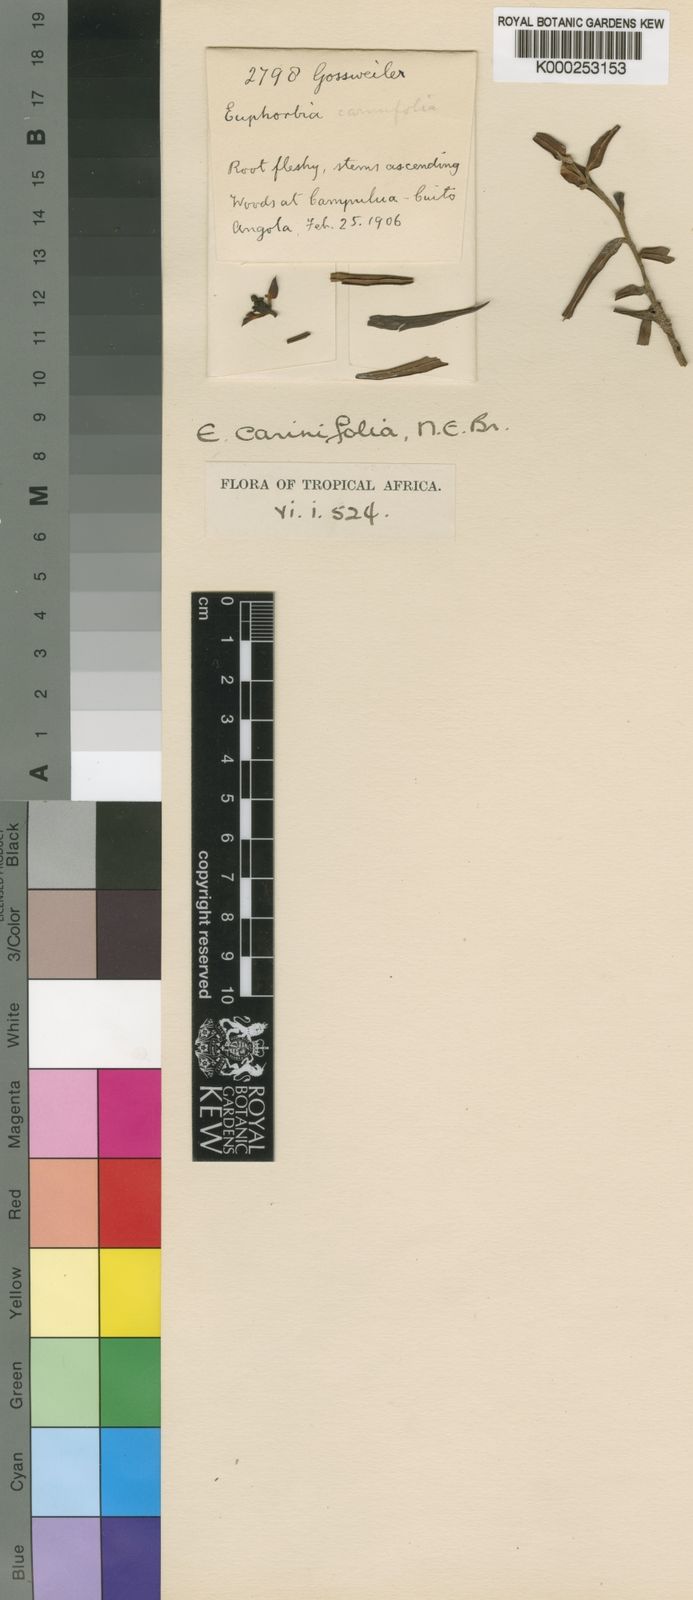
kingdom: Plantae
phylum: Tracheophyta
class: Magnoliopsida
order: Malpighiales
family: Euphorbiaceae
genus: Euphorbia
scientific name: Euphorbia carinifolia
